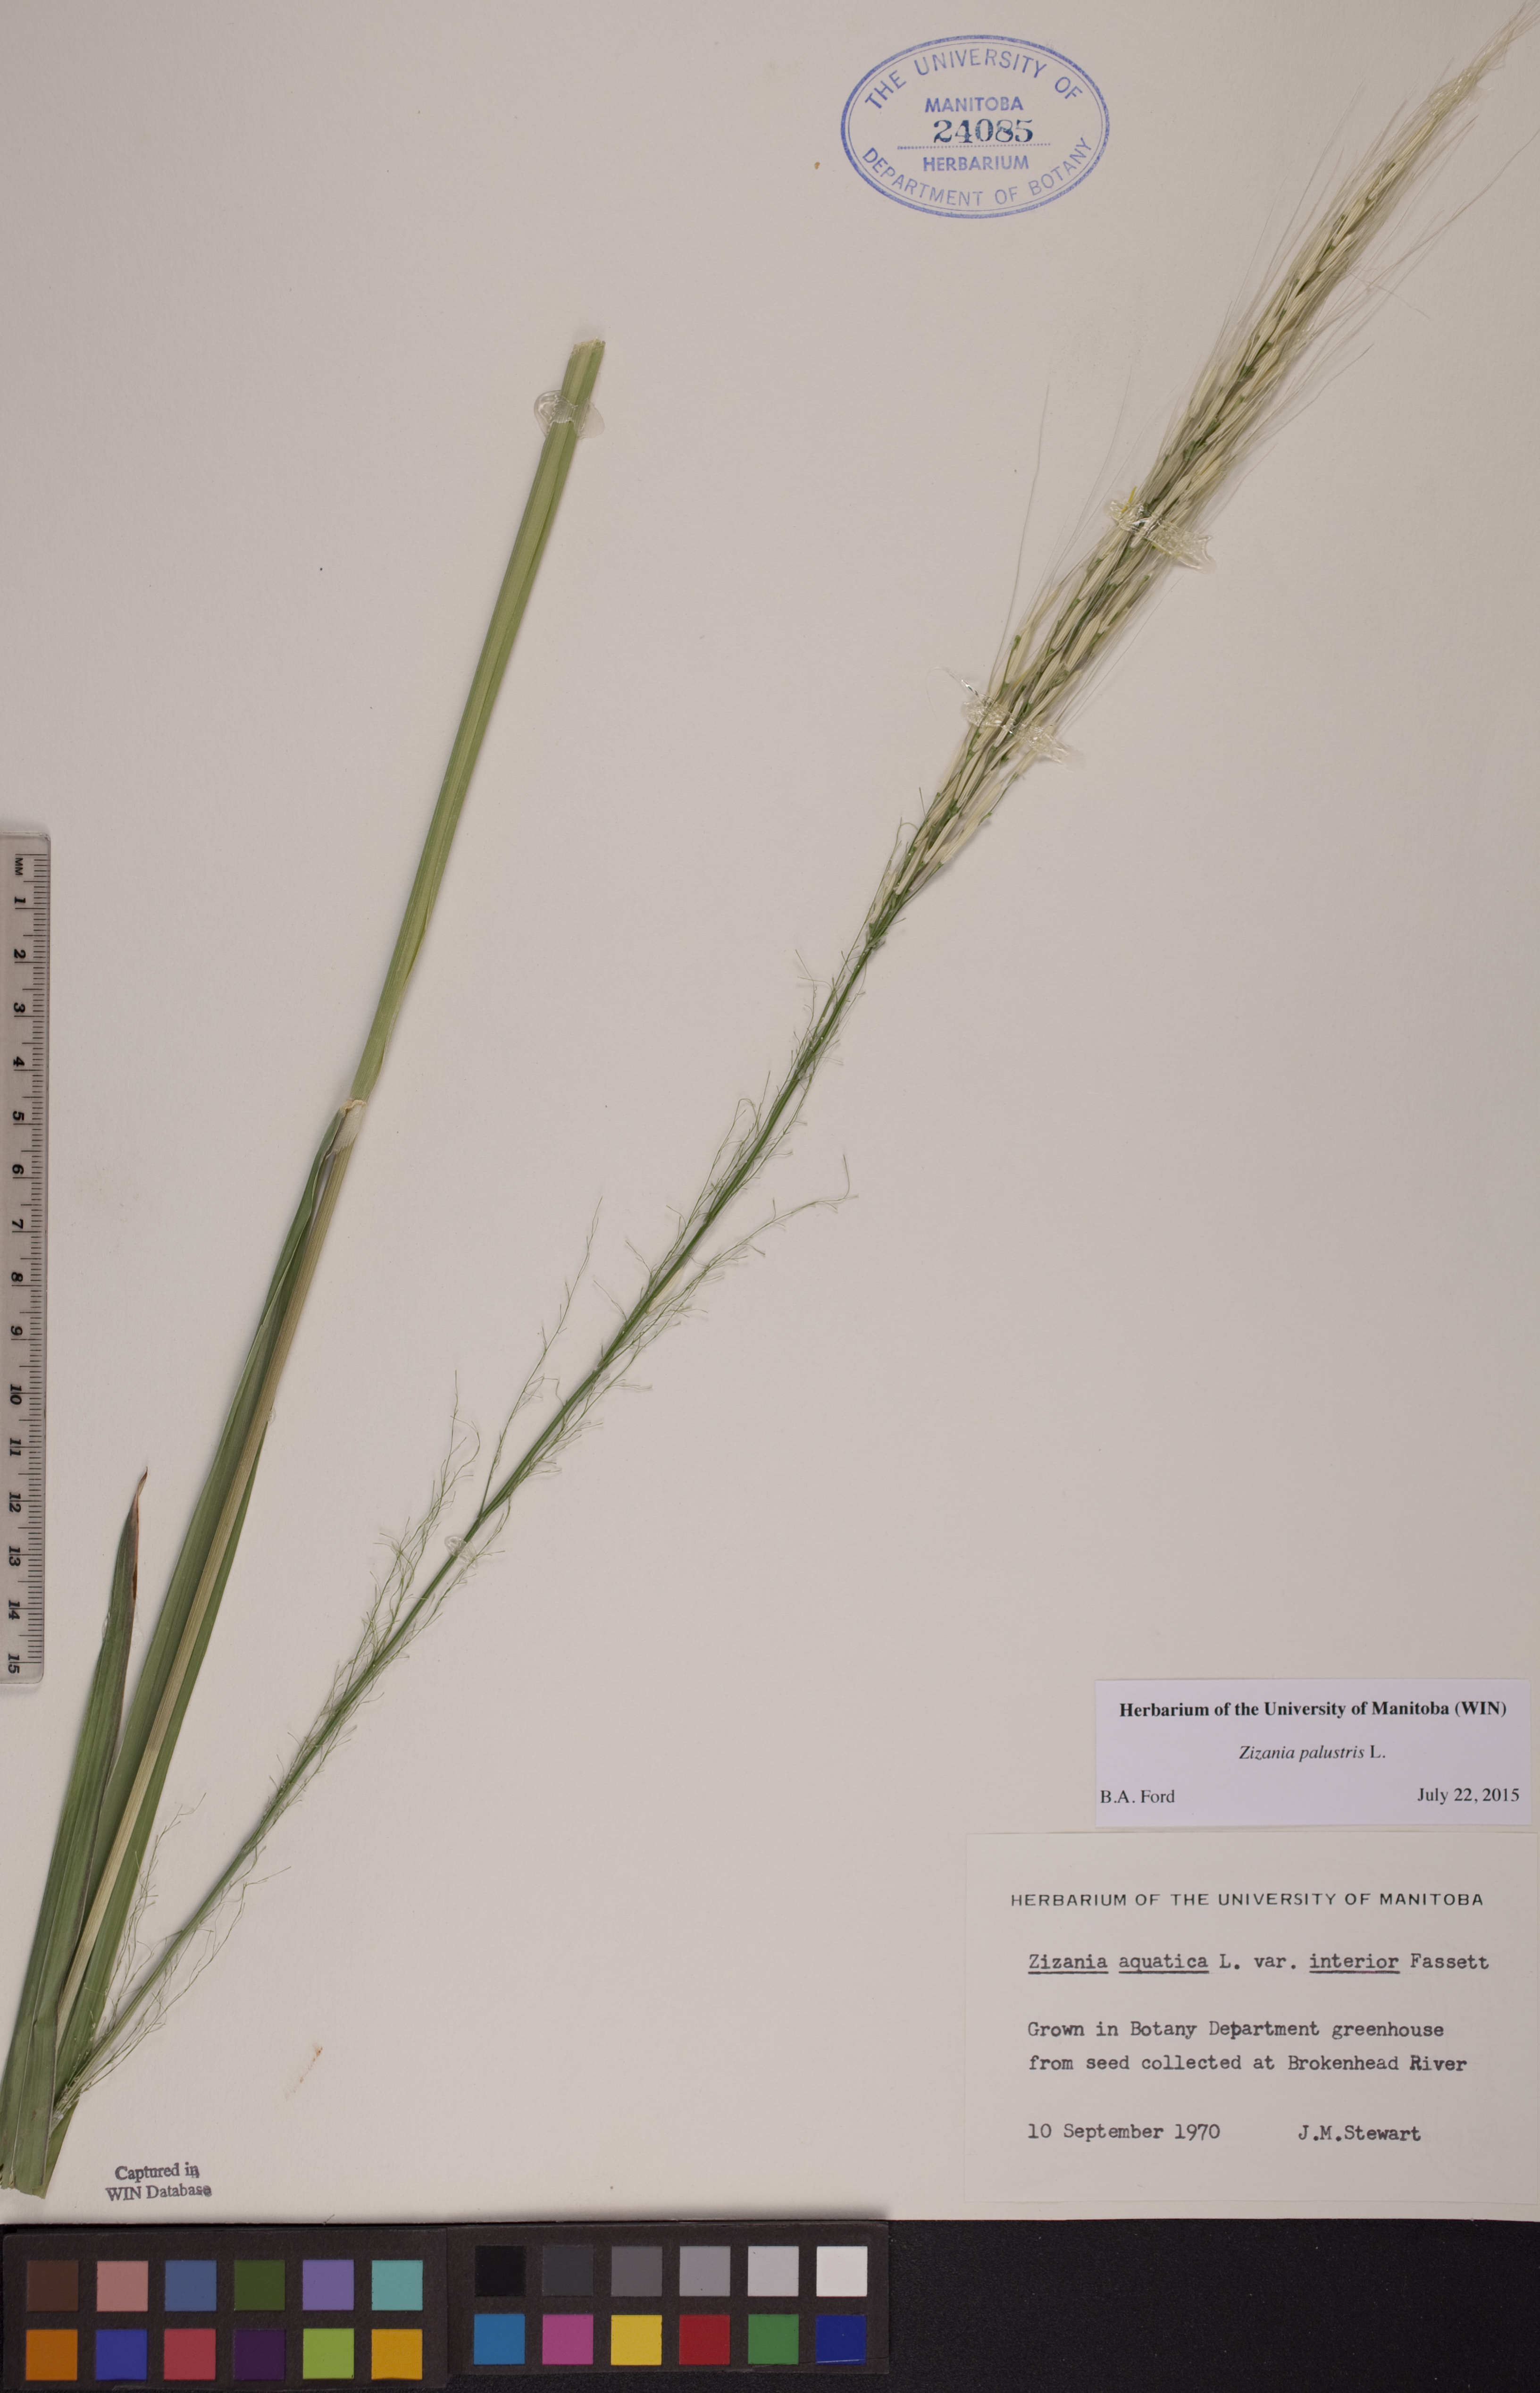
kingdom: Plantae
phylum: Tracheophyta
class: Liliopsida
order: Poales
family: Poaceae
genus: Zizania
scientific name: Zizania palustris
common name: Northern wild rice
